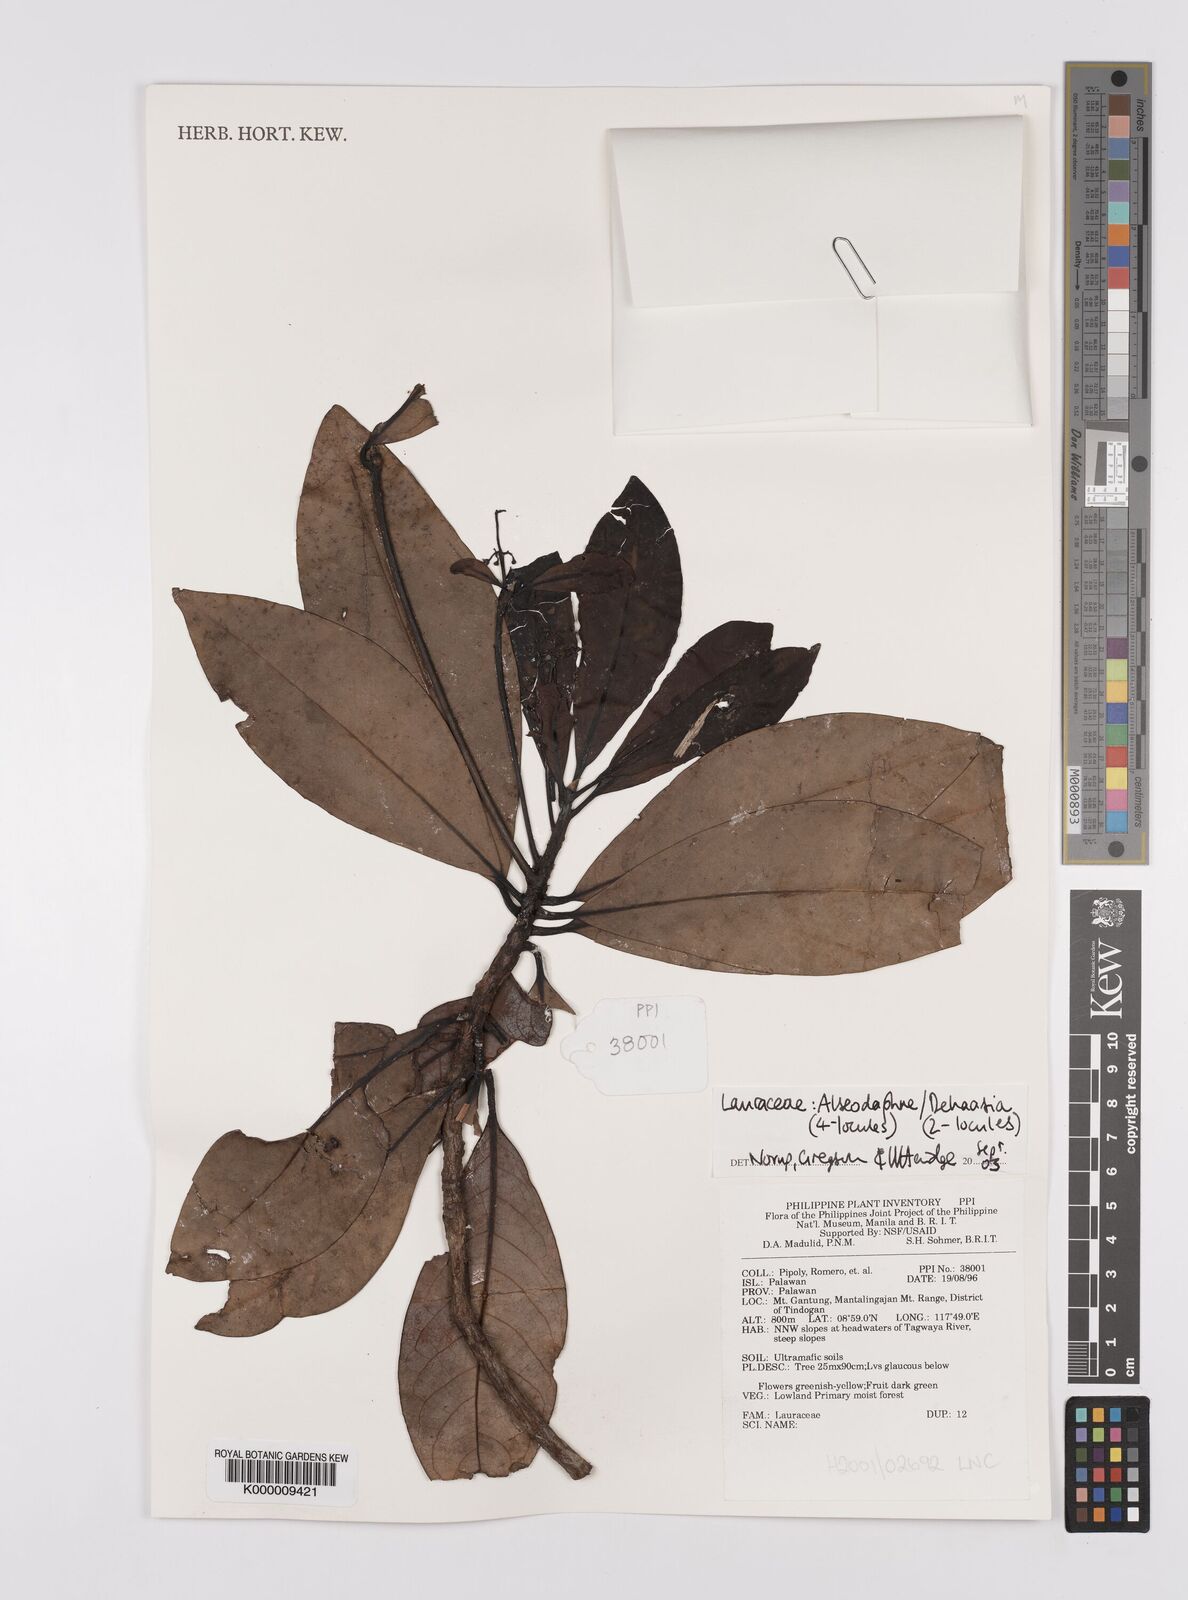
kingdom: Plantae
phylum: Tracheophyta
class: Magnoliopsida
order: Laurales
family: Lauraceae
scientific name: Lauraceae
